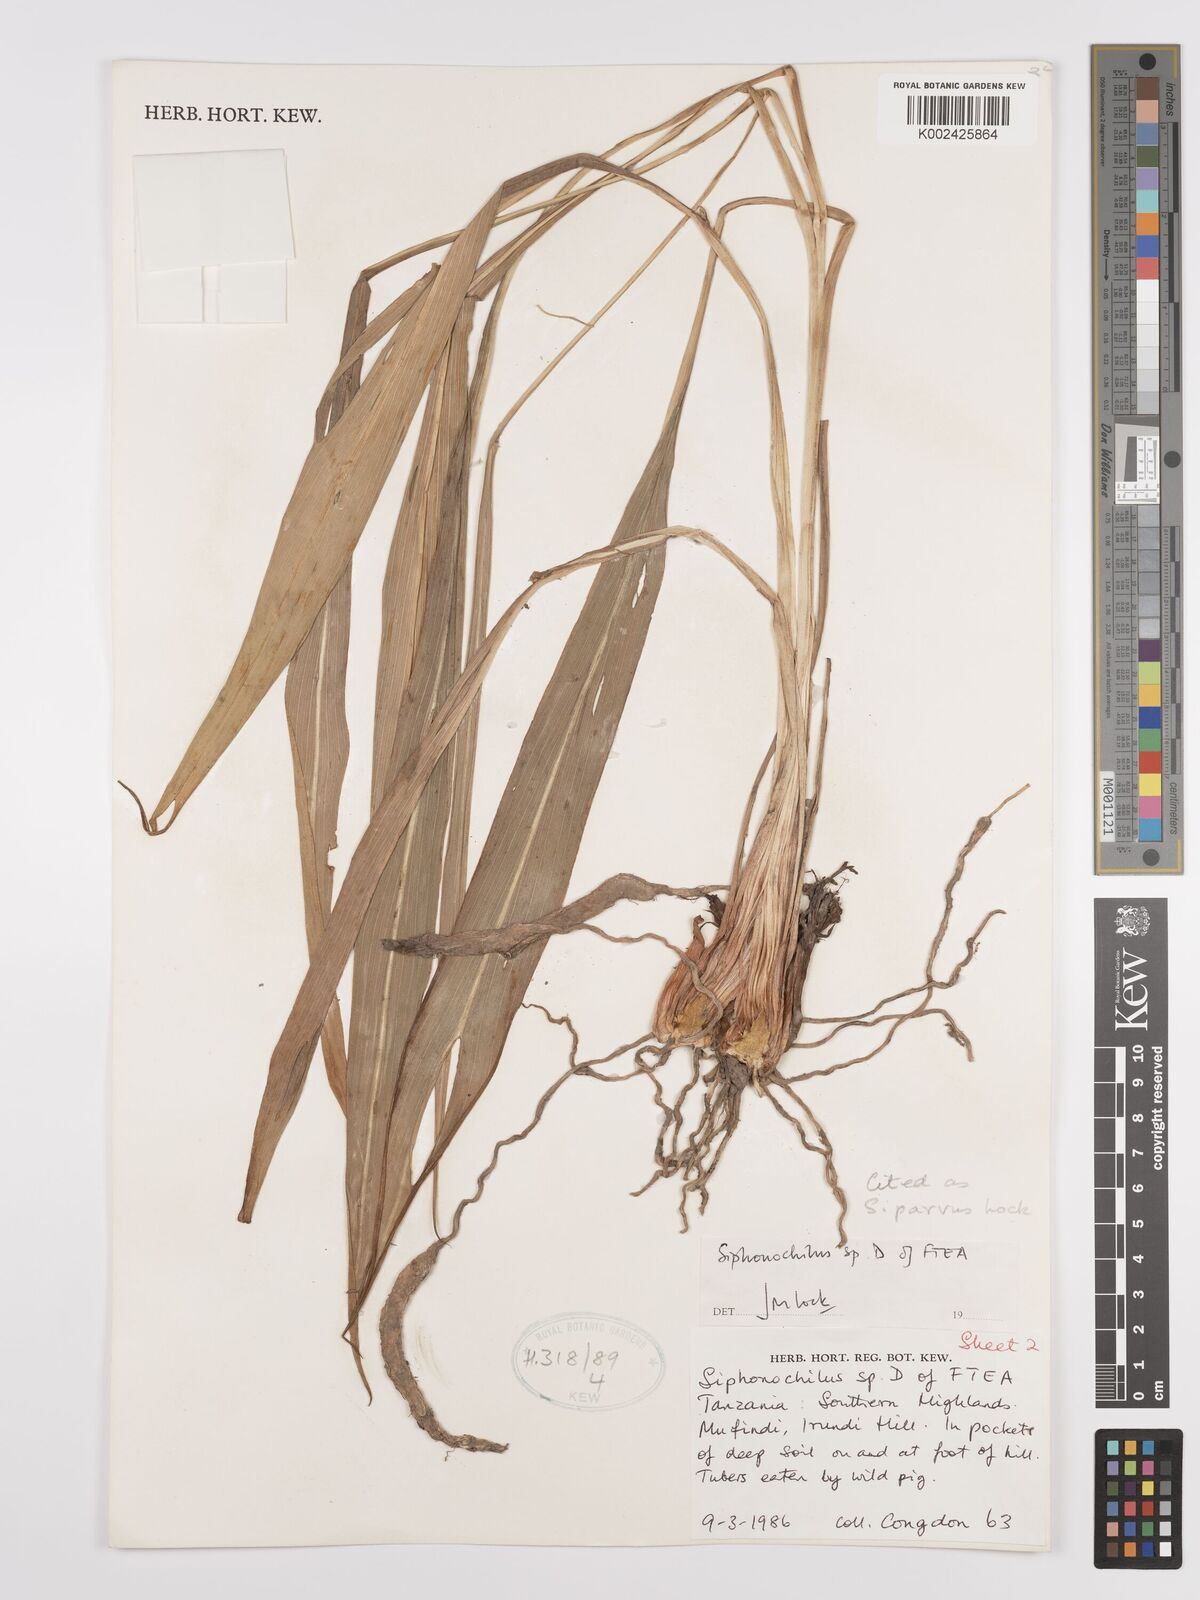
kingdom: Plantae
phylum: Tracheophyta
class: Liliopsida
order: Zingiberales
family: Zingiberaceae
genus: Siphonochilus
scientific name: Siphonochilus parvus
